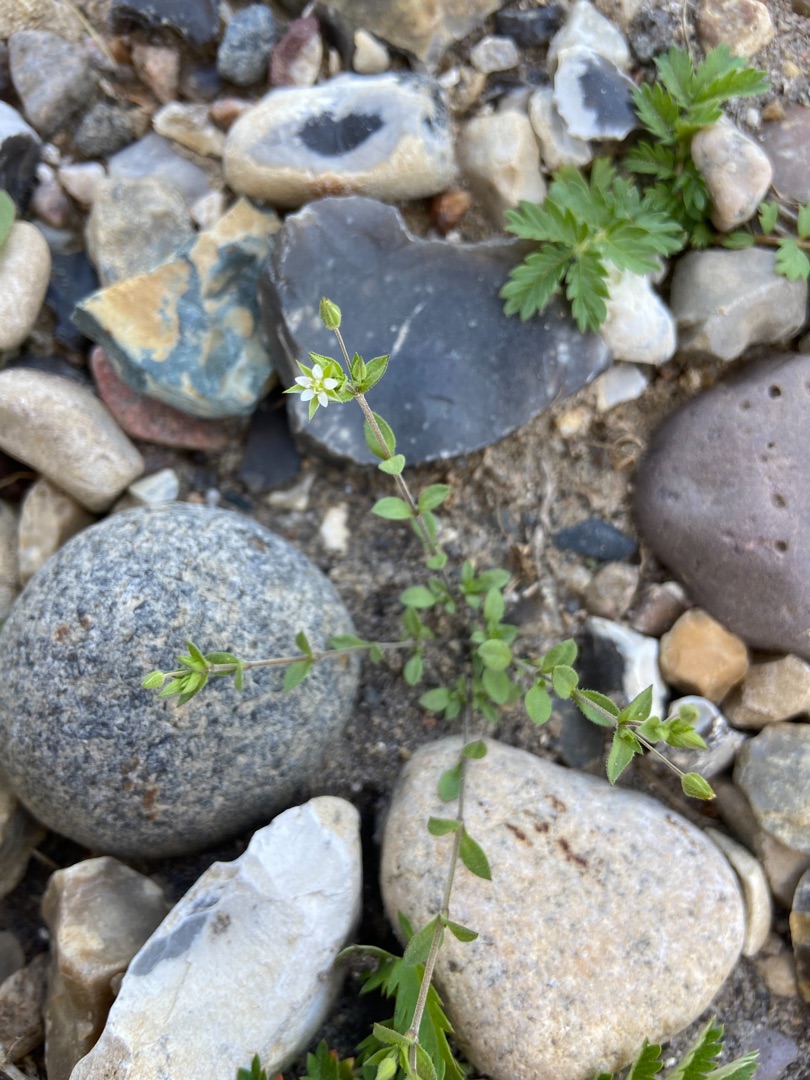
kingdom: Plantae
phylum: Tracheophyta
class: Magnoliopsida
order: Caryophyllales
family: Caryophyllaceae
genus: Arenaria
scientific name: Arenaria serpyllifolia
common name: Almindelig markarve
